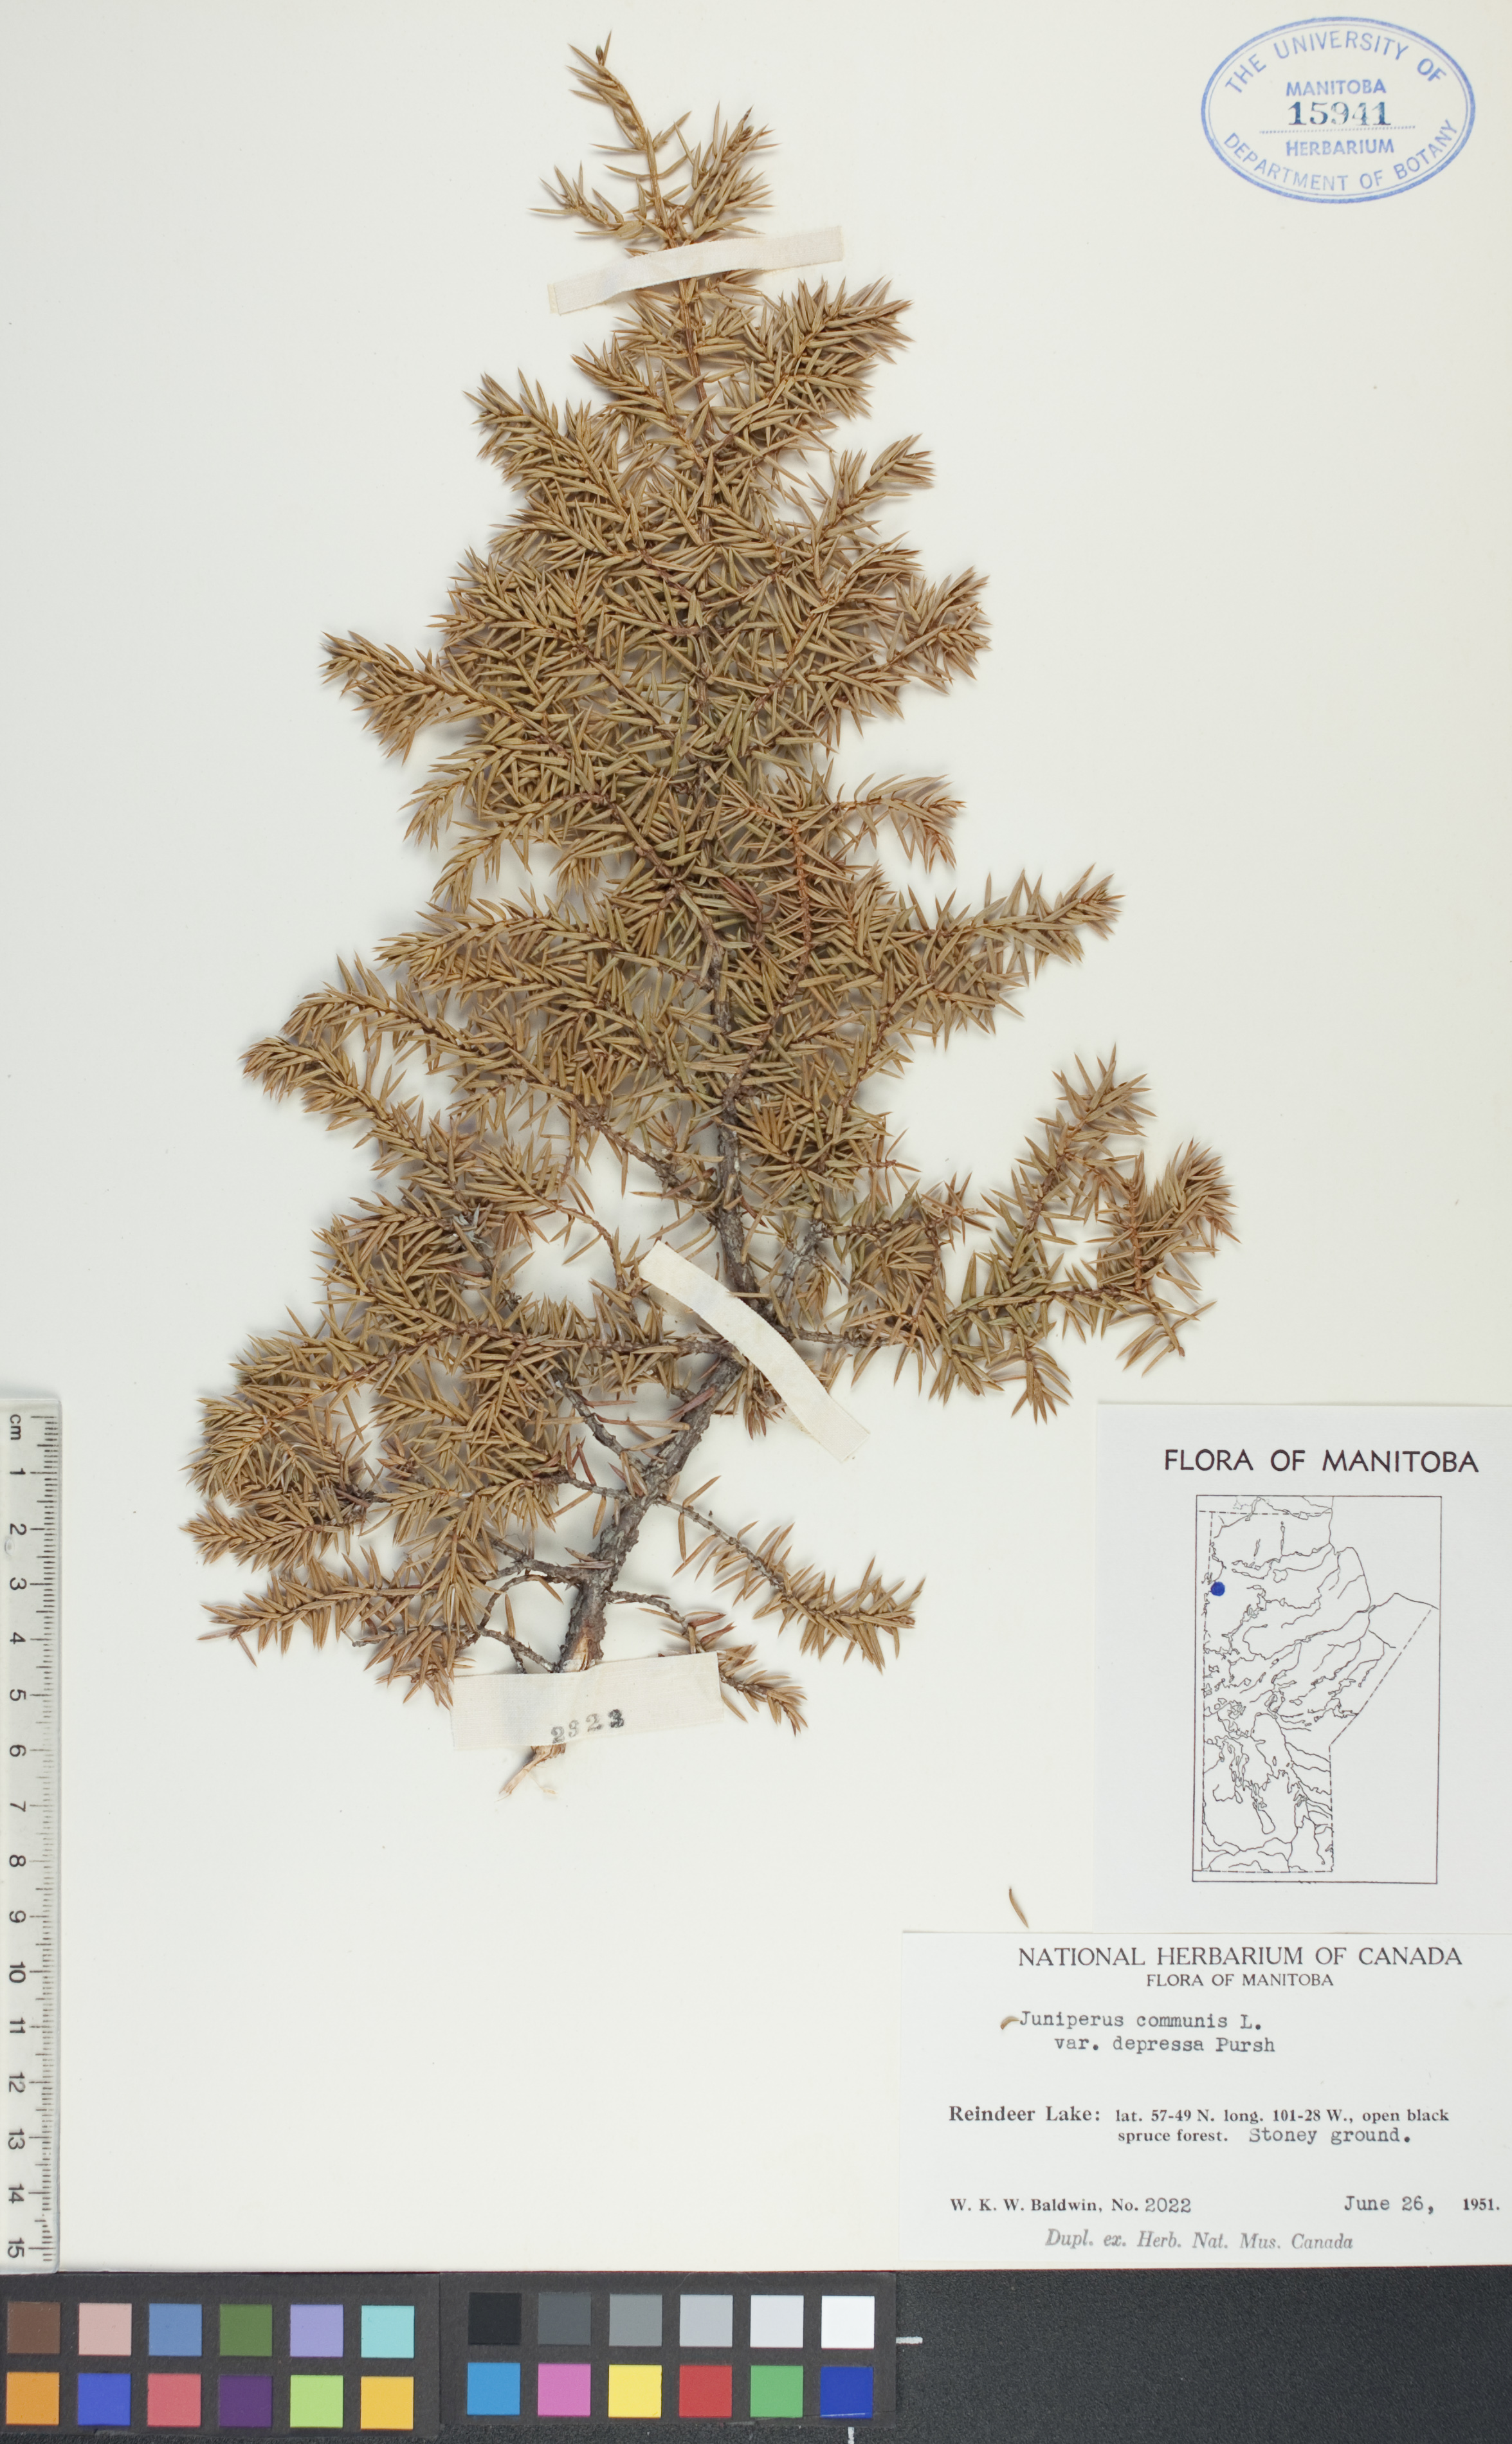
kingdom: Plantae
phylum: Tracheophyta
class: Pinopsida
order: Pinales
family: Cupressaceae
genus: Juniperus
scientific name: Juniperus communis
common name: Common juniper
